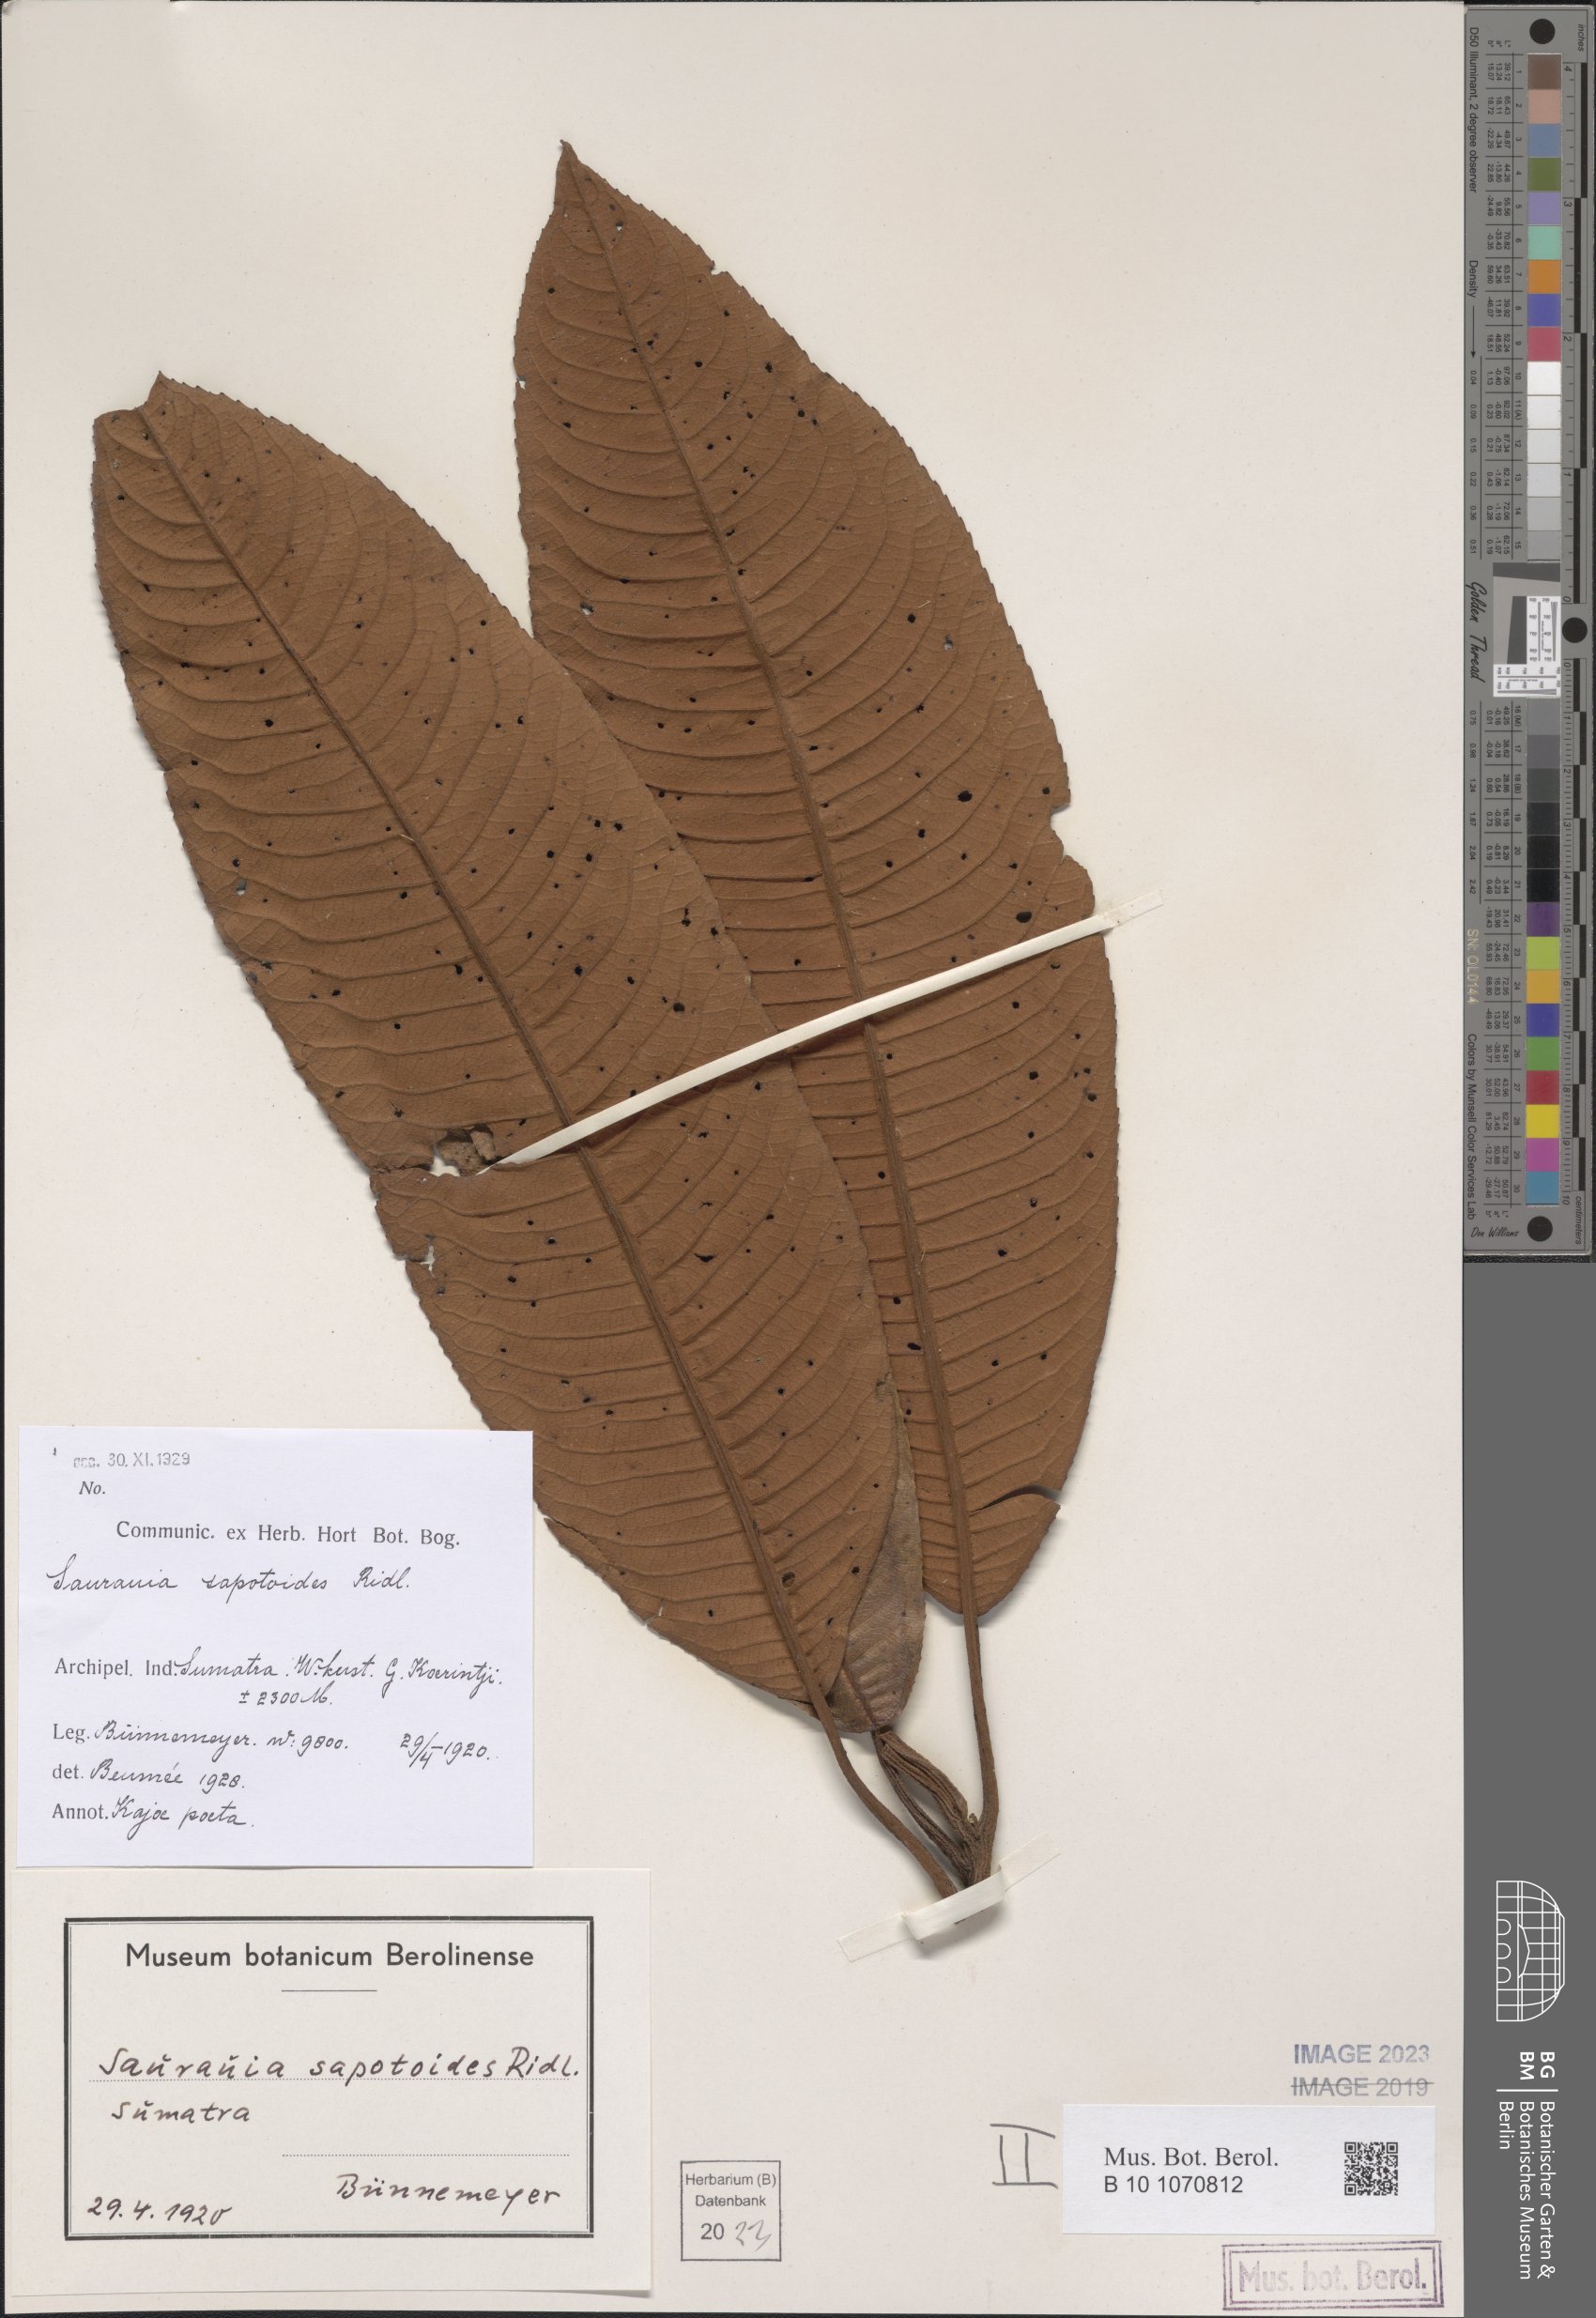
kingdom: Plantae
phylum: Tracheophyta
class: Magnoliopsida
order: Ericales
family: Actinidiaceae
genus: Saurauia
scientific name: Saurauia sapotoides
